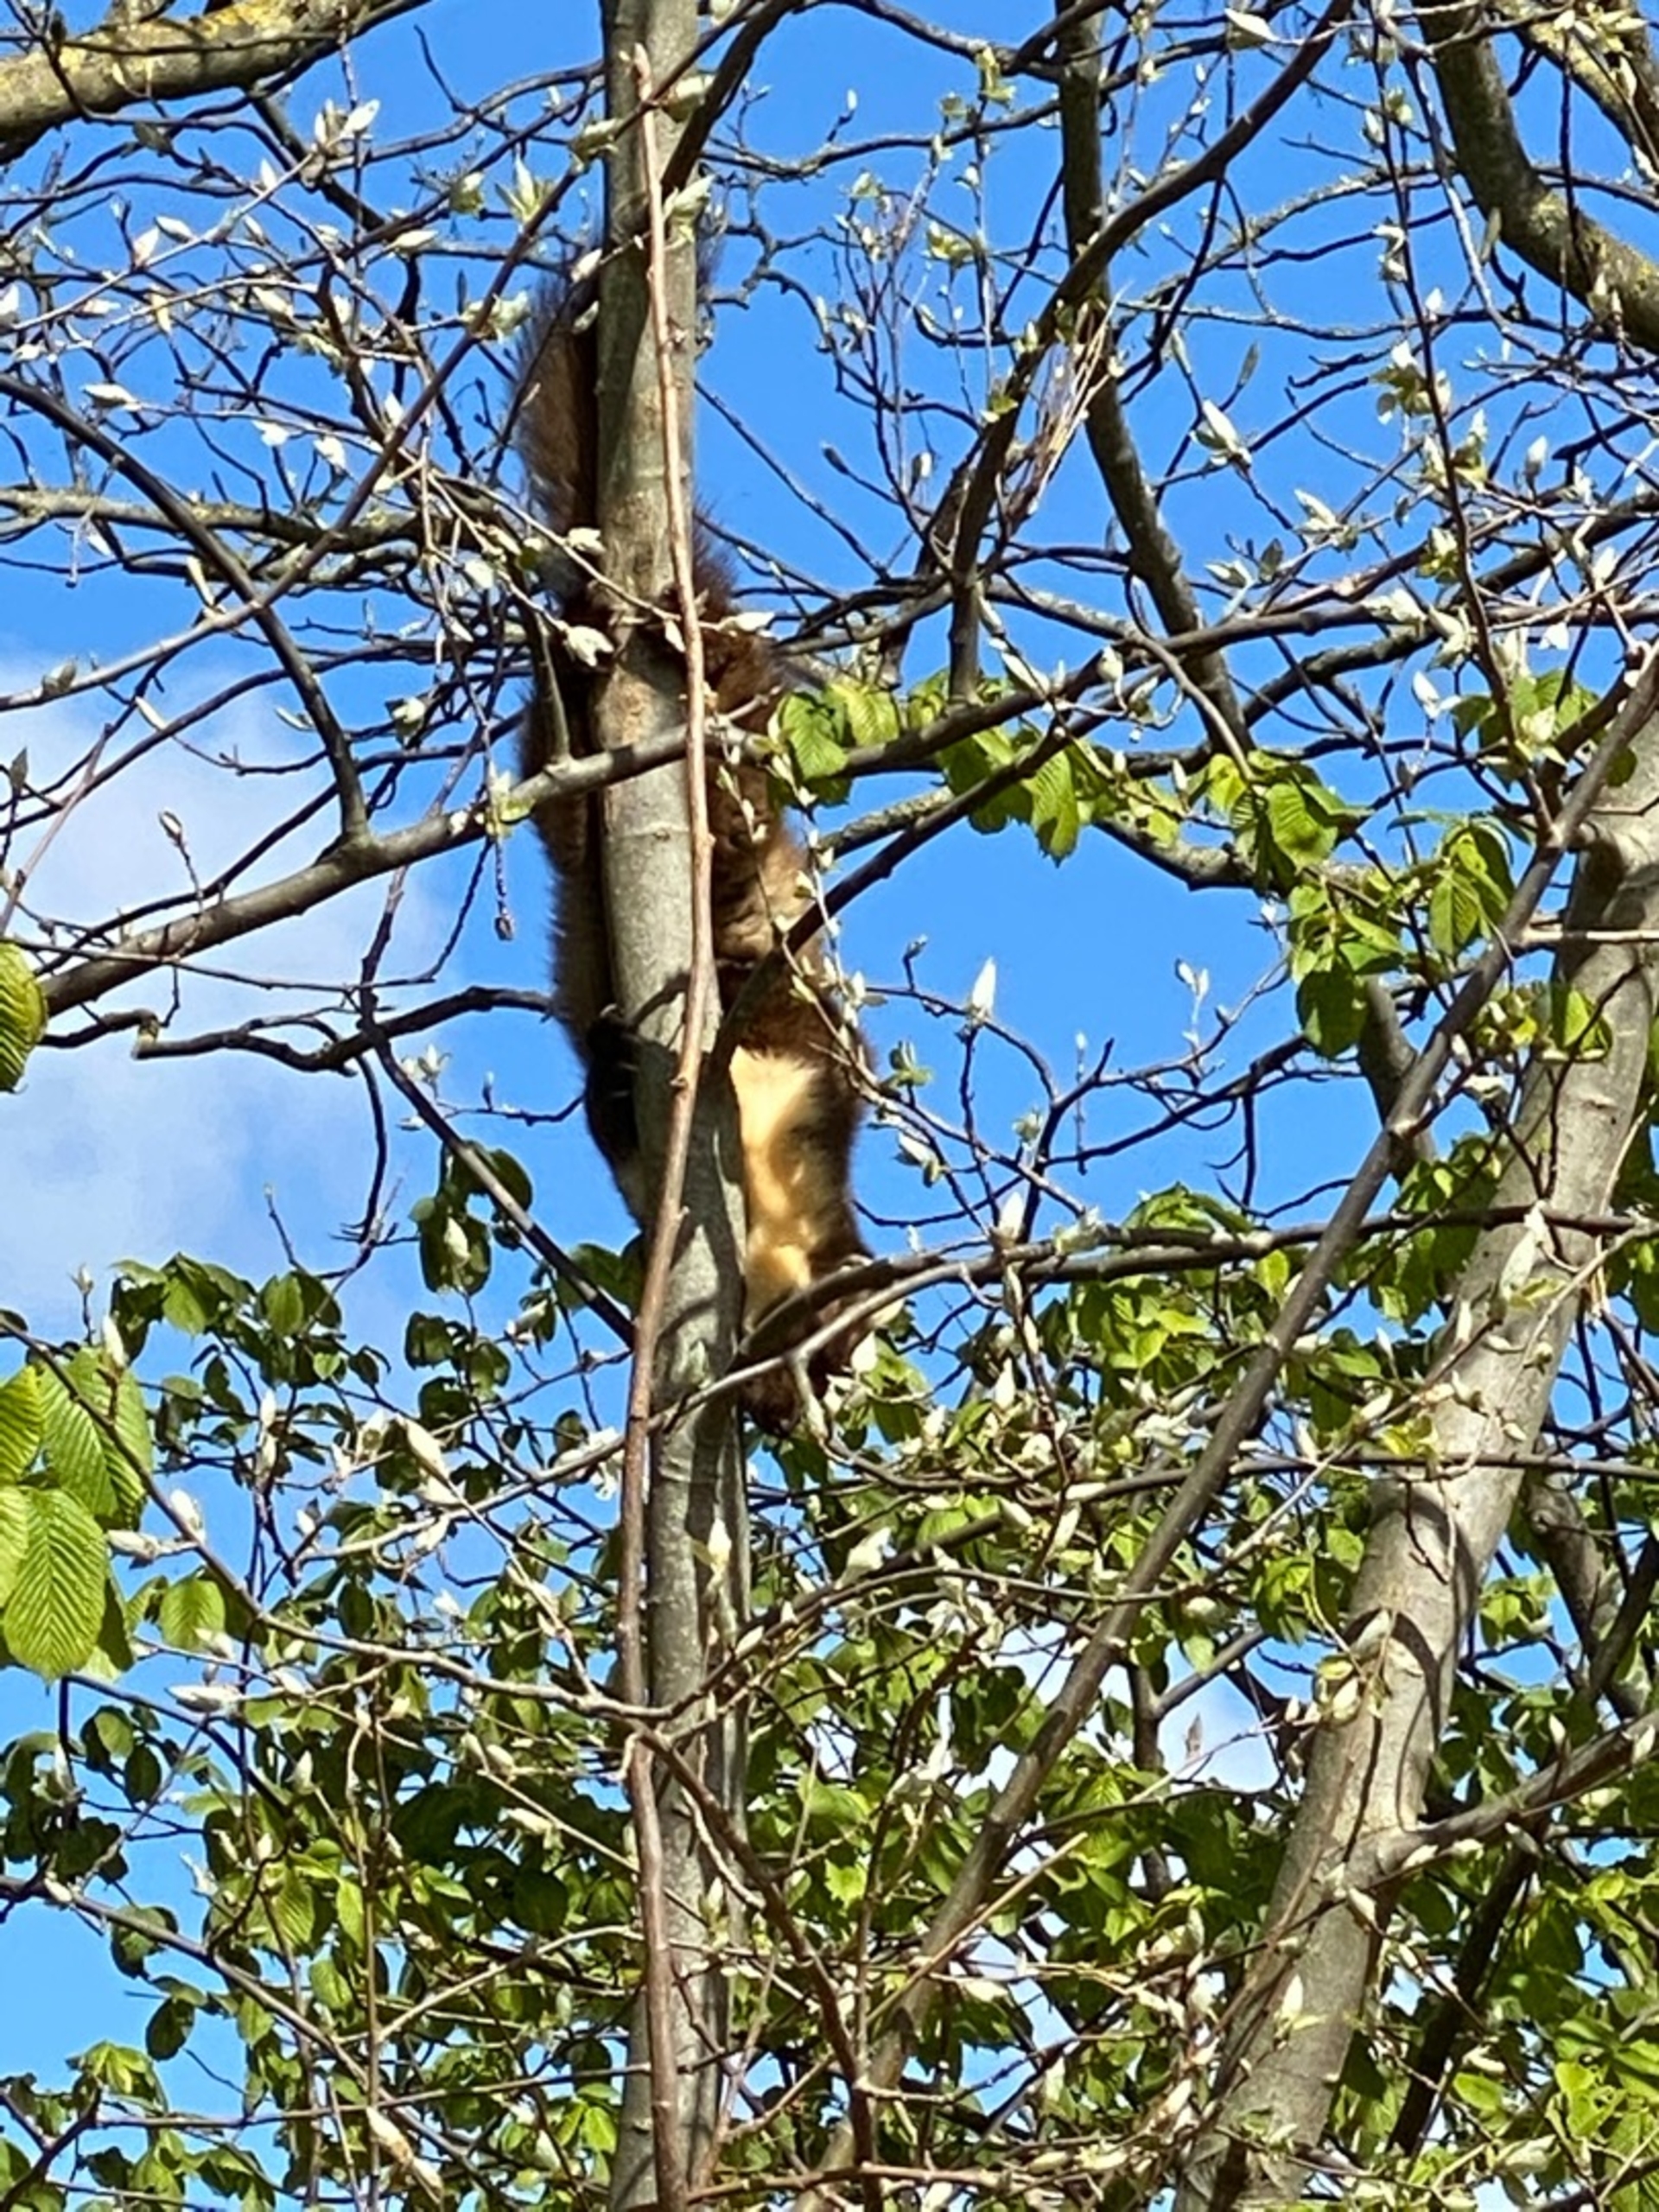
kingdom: Animalia
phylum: Chordata
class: Mammalia
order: Carnivora
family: Mustelidae
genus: Martes
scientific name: Martes martes
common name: Skovmår
